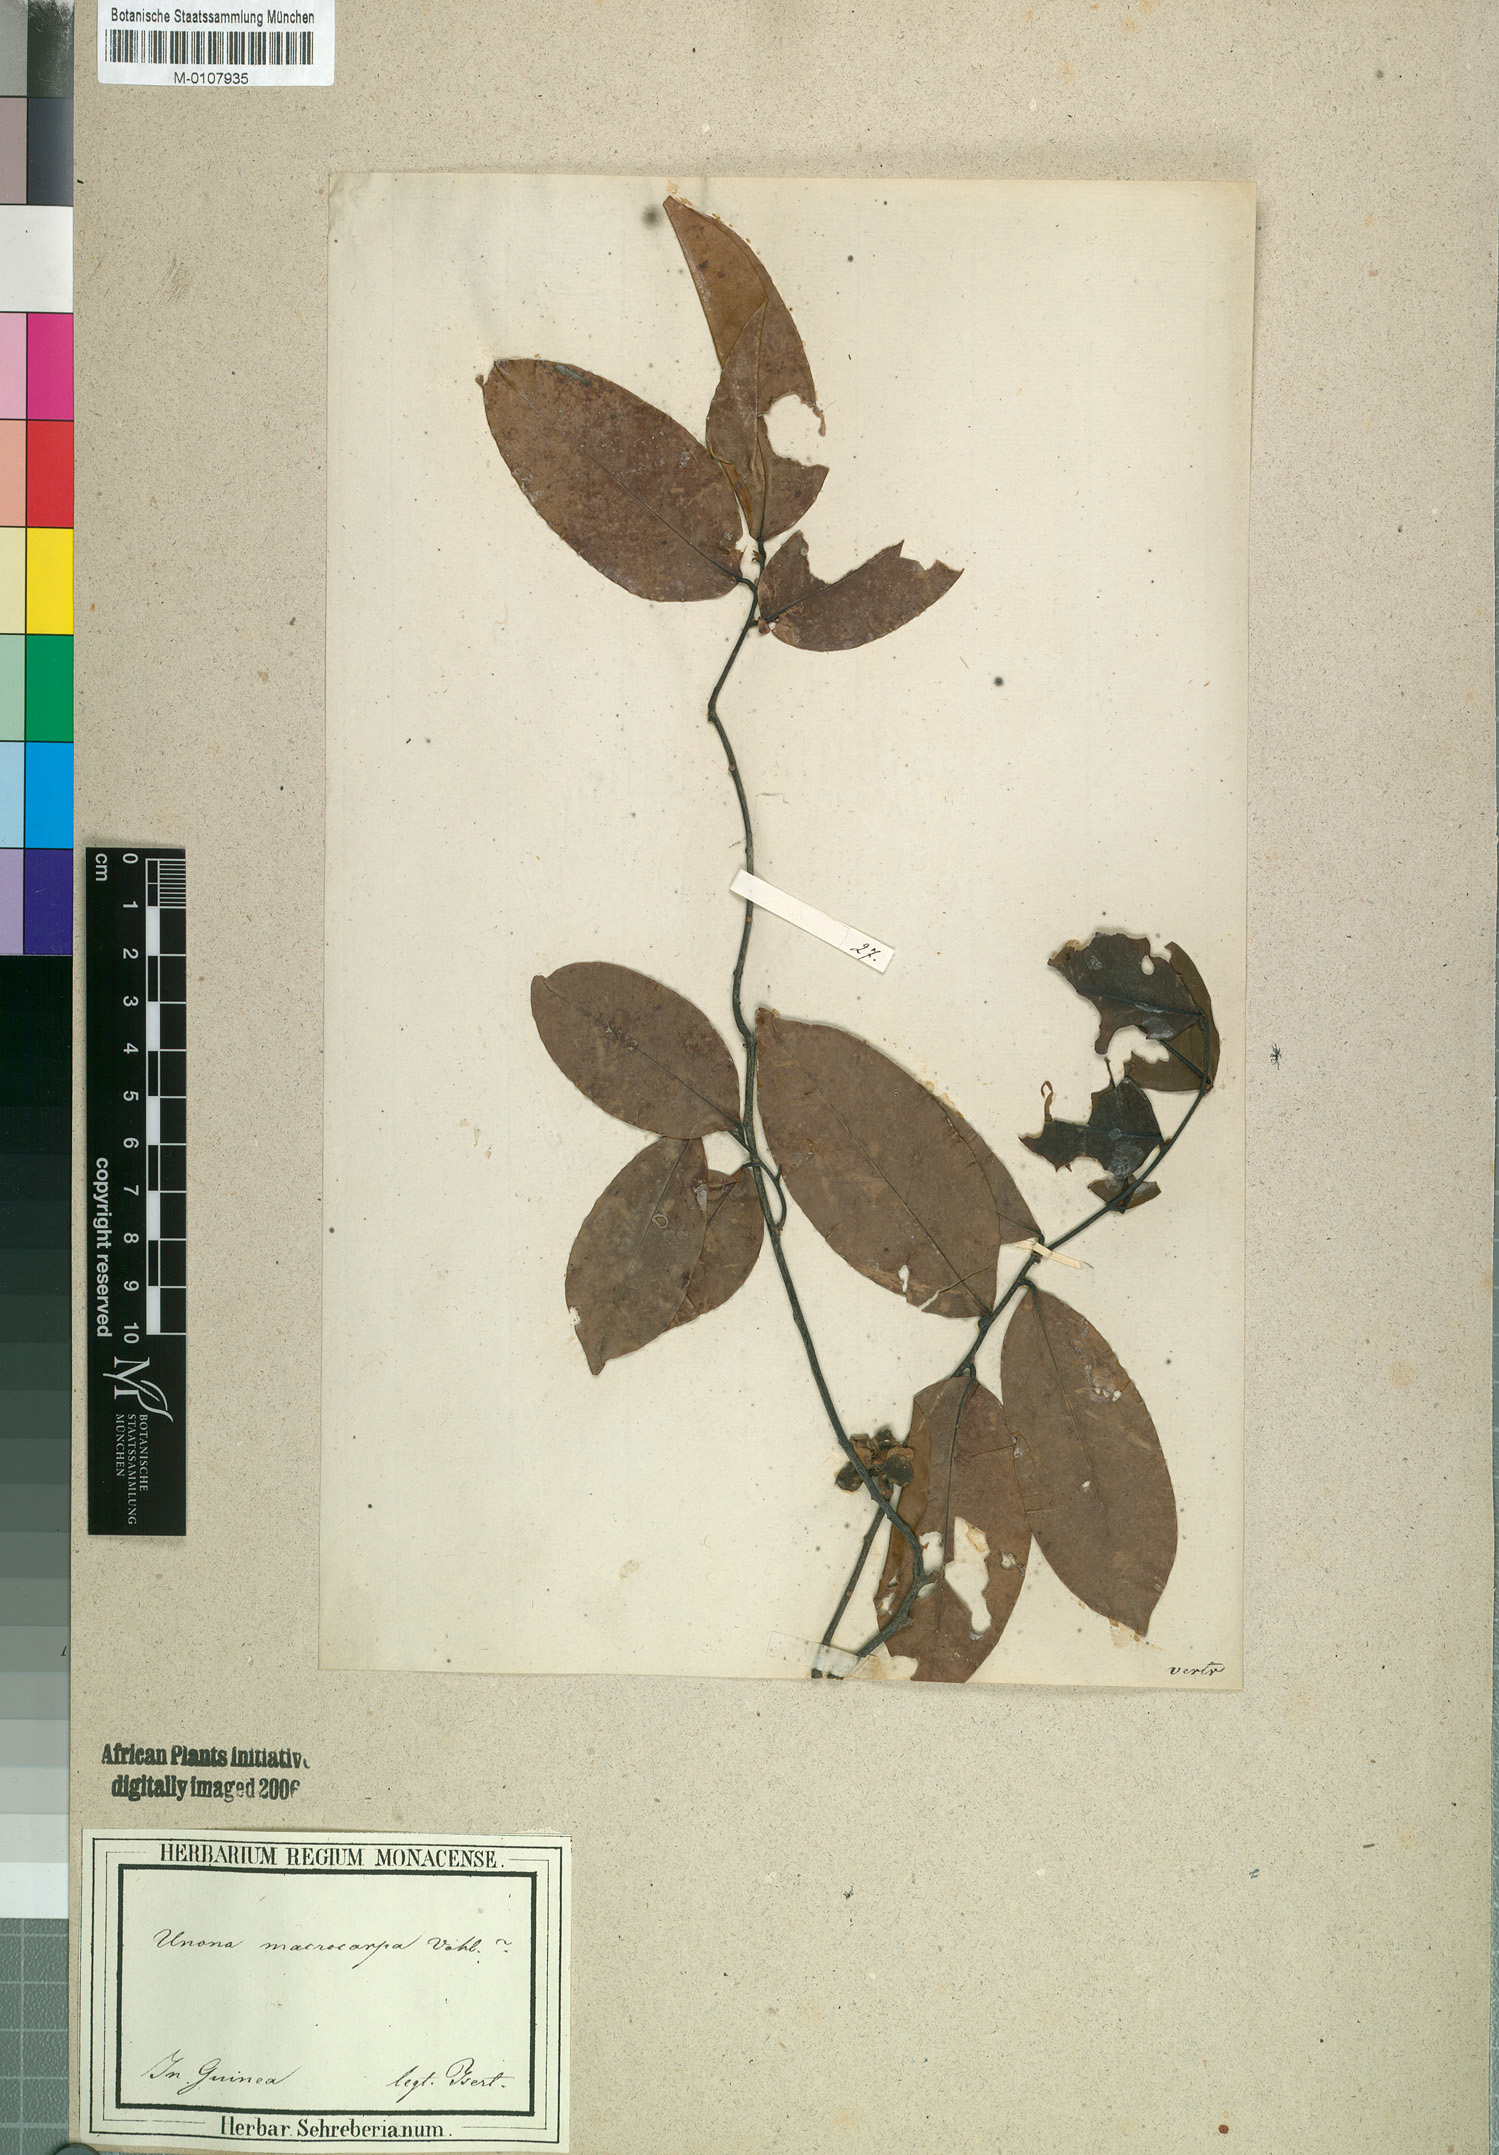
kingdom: Plantae
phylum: Tracheophyta
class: Magnoliopsida
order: Magnoliales
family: Annonaceae
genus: Uvaria
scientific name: Uvaria chamae
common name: Finger-root
